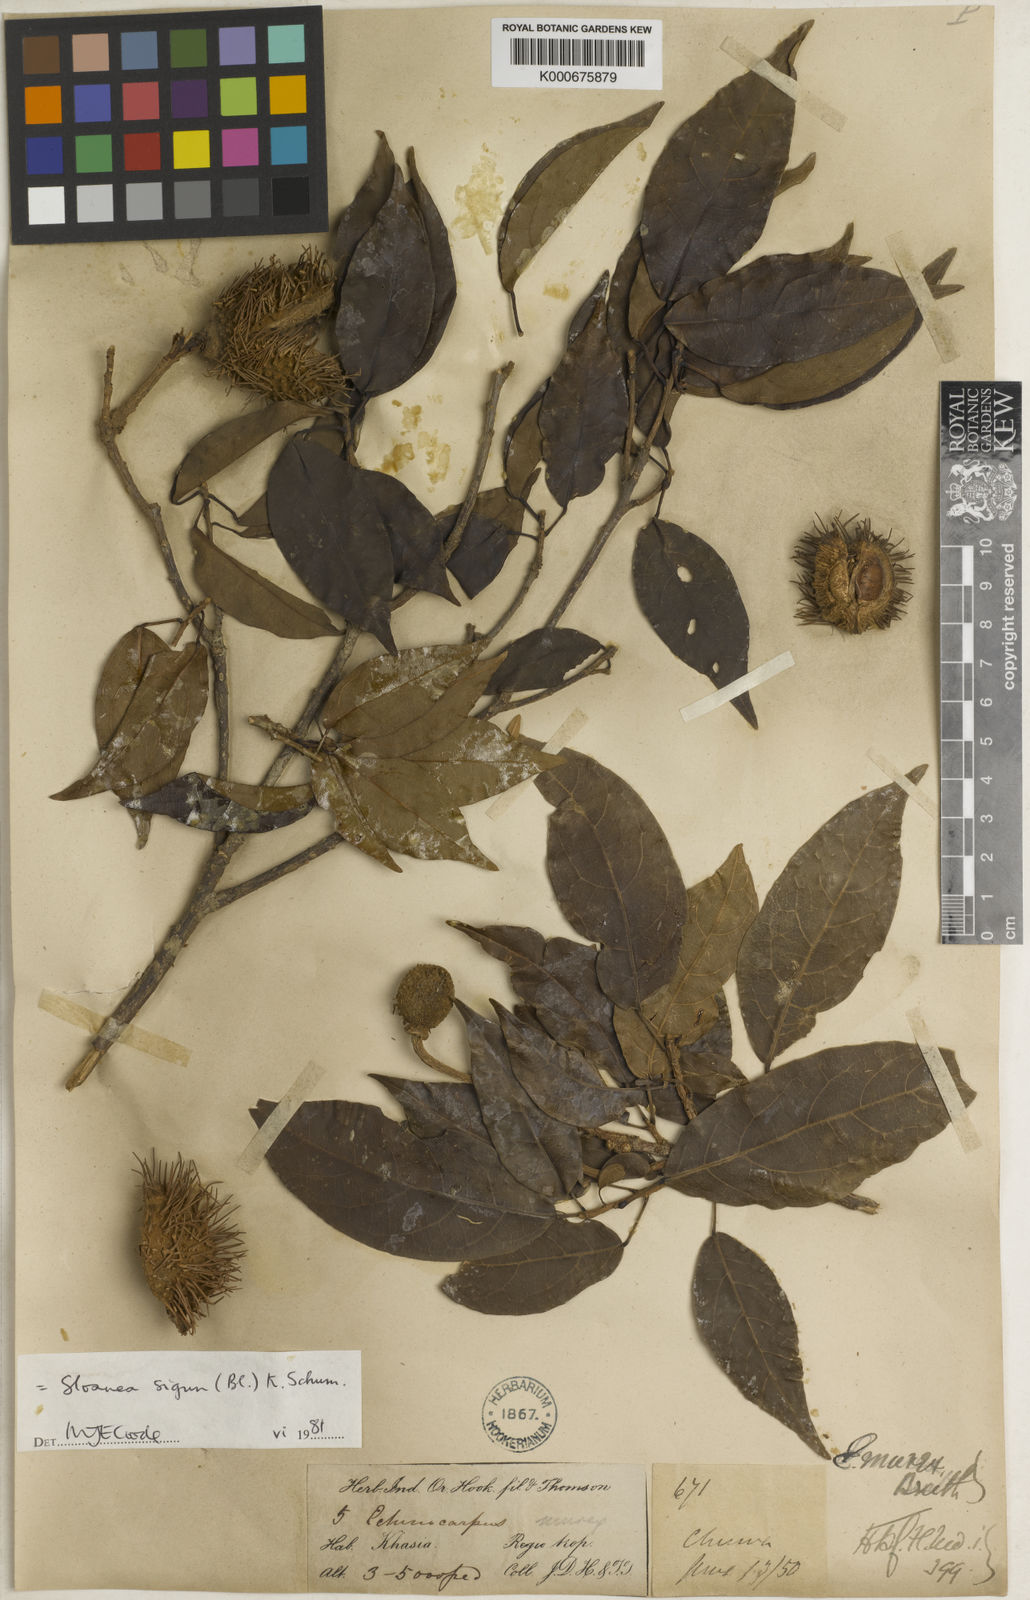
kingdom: Plantae
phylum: Tracheophyta
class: Magnoliopsida
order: Oxalidales
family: Elaeocarpaceae
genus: Sloanea
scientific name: Sloanea
